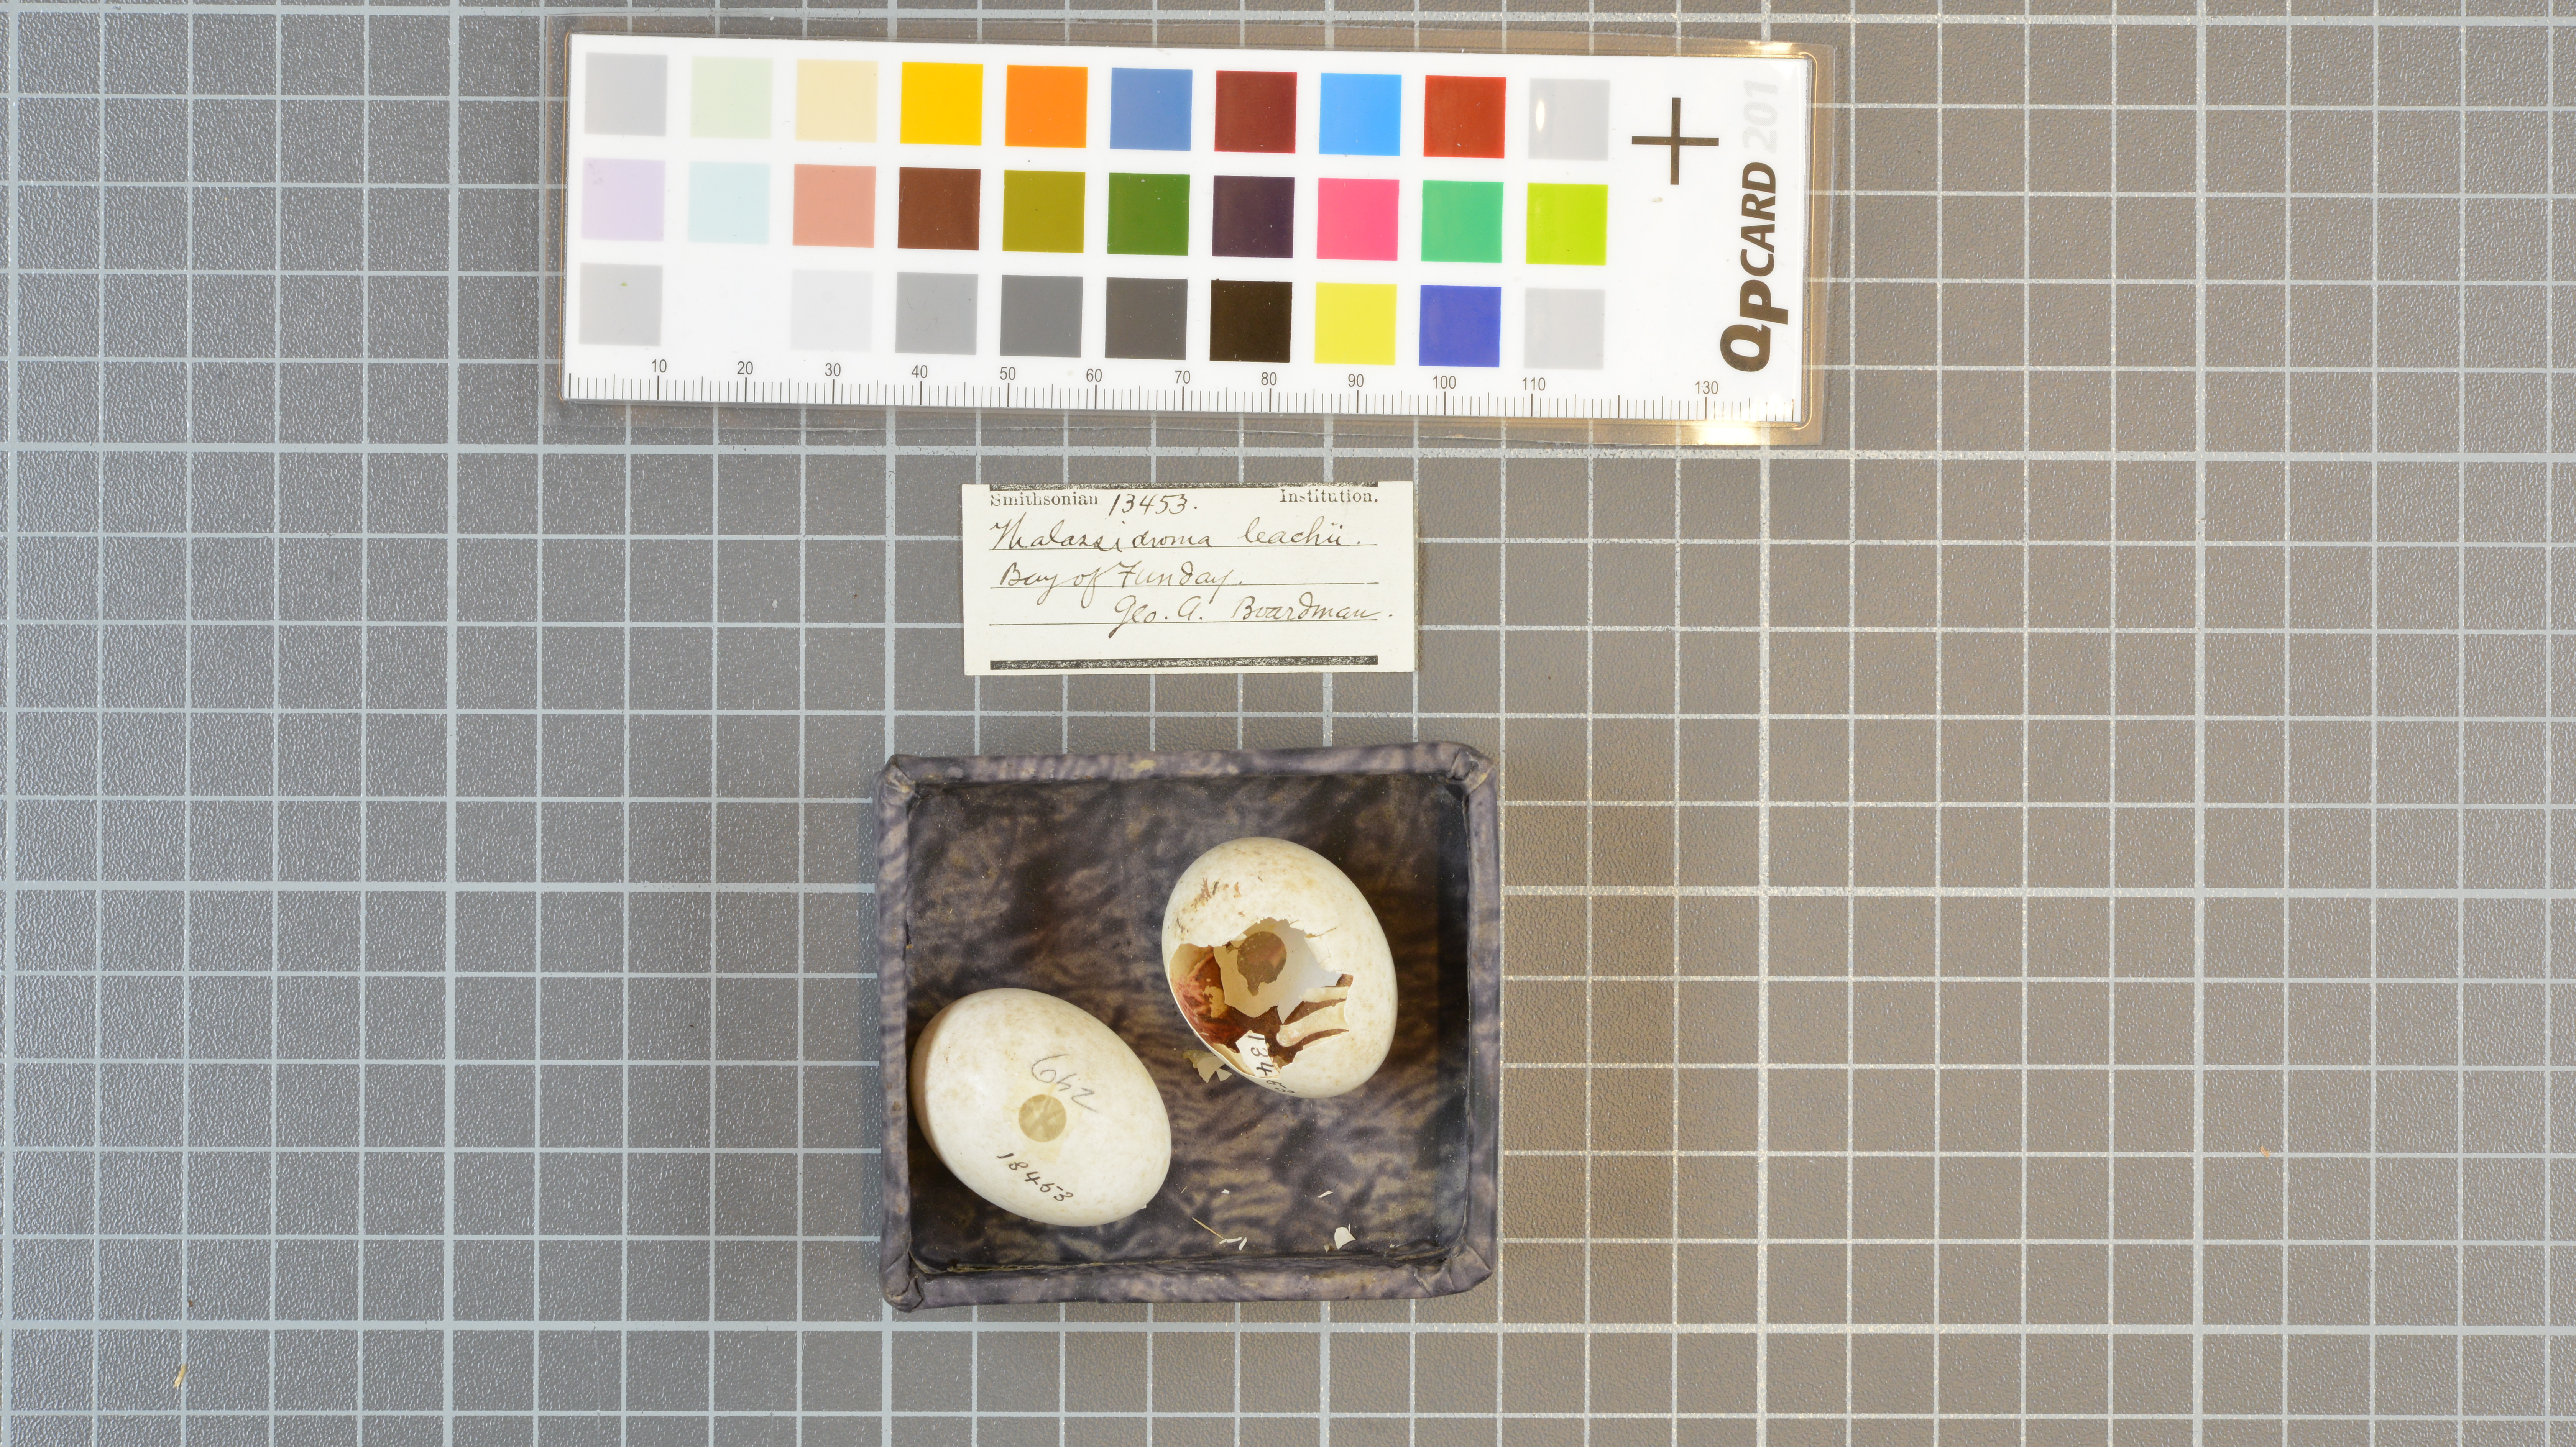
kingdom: Animalia
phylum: Chordata
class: Aves
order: Procellariiformes
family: Hydrobatidae
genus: Oceanodroma
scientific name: Oceanodroma leucorhoa
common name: Leach's storm-petrel
